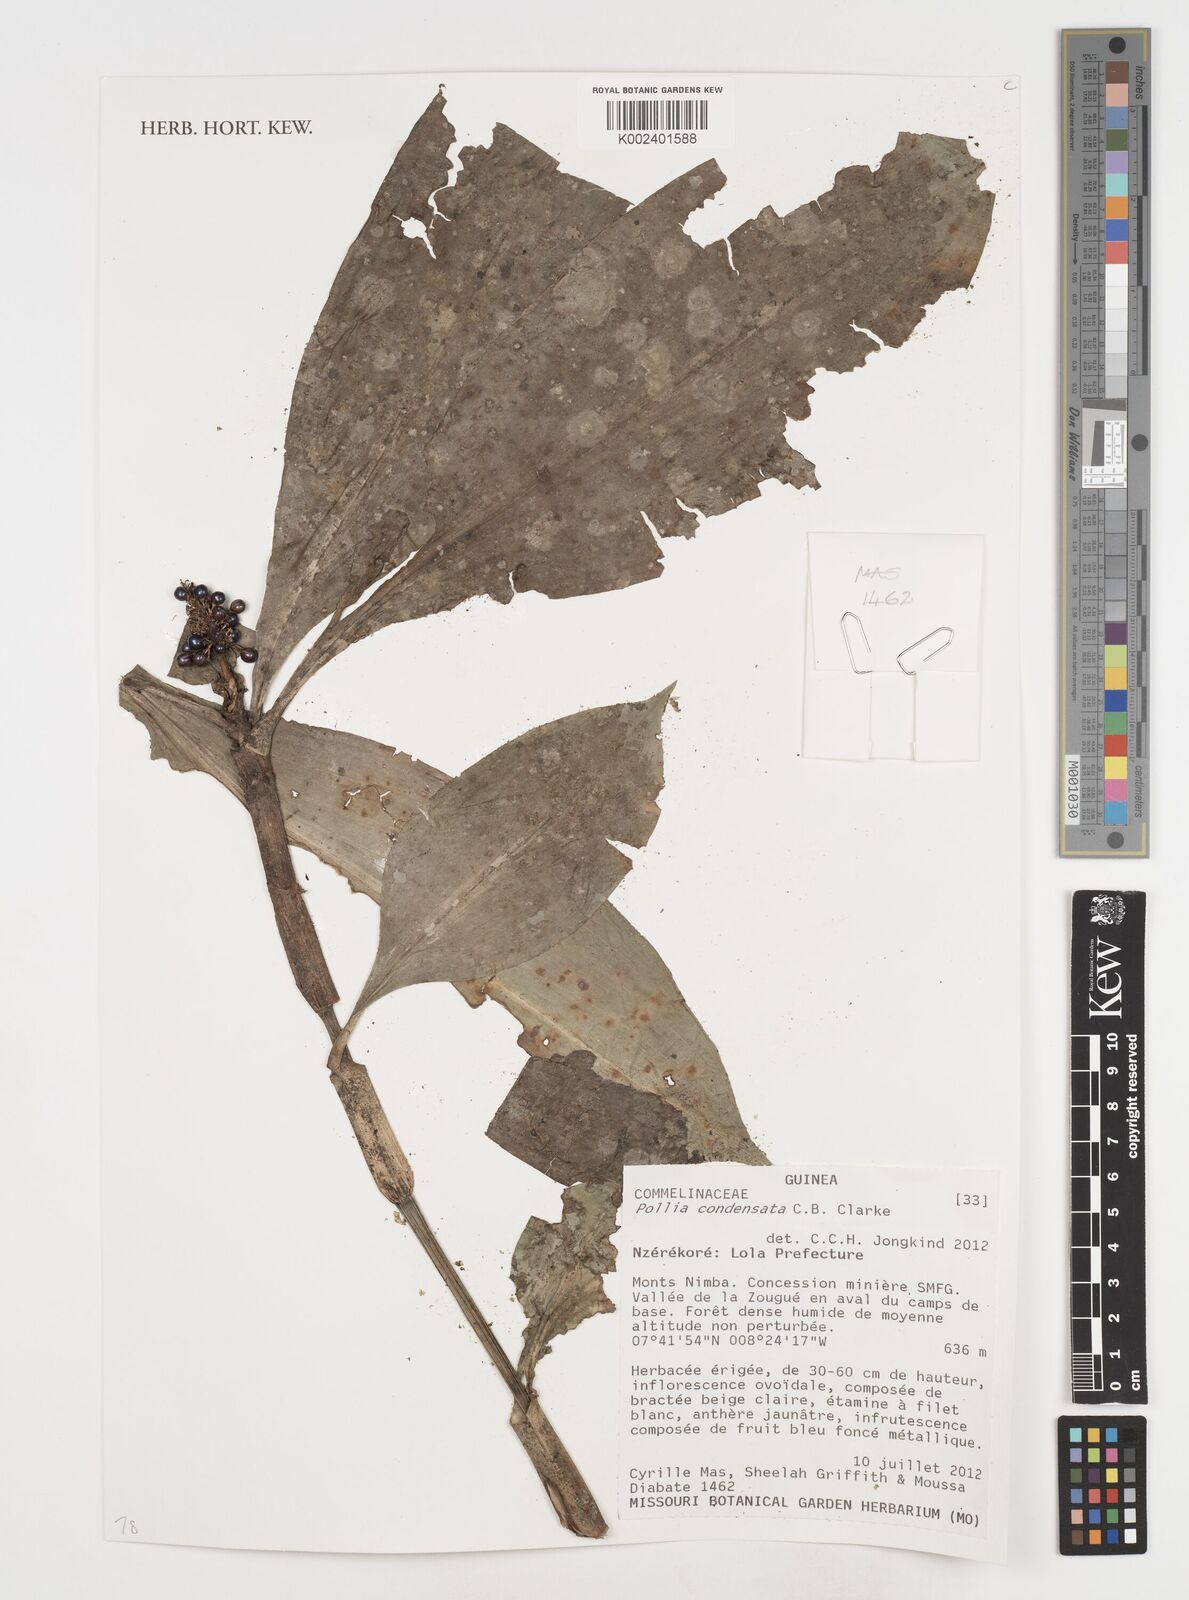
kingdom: Plantae
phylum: Tracheophyta
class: Liliopsida
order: Commelinales
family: Commelinaceae
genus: Pollia
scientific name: Pollia condensata
